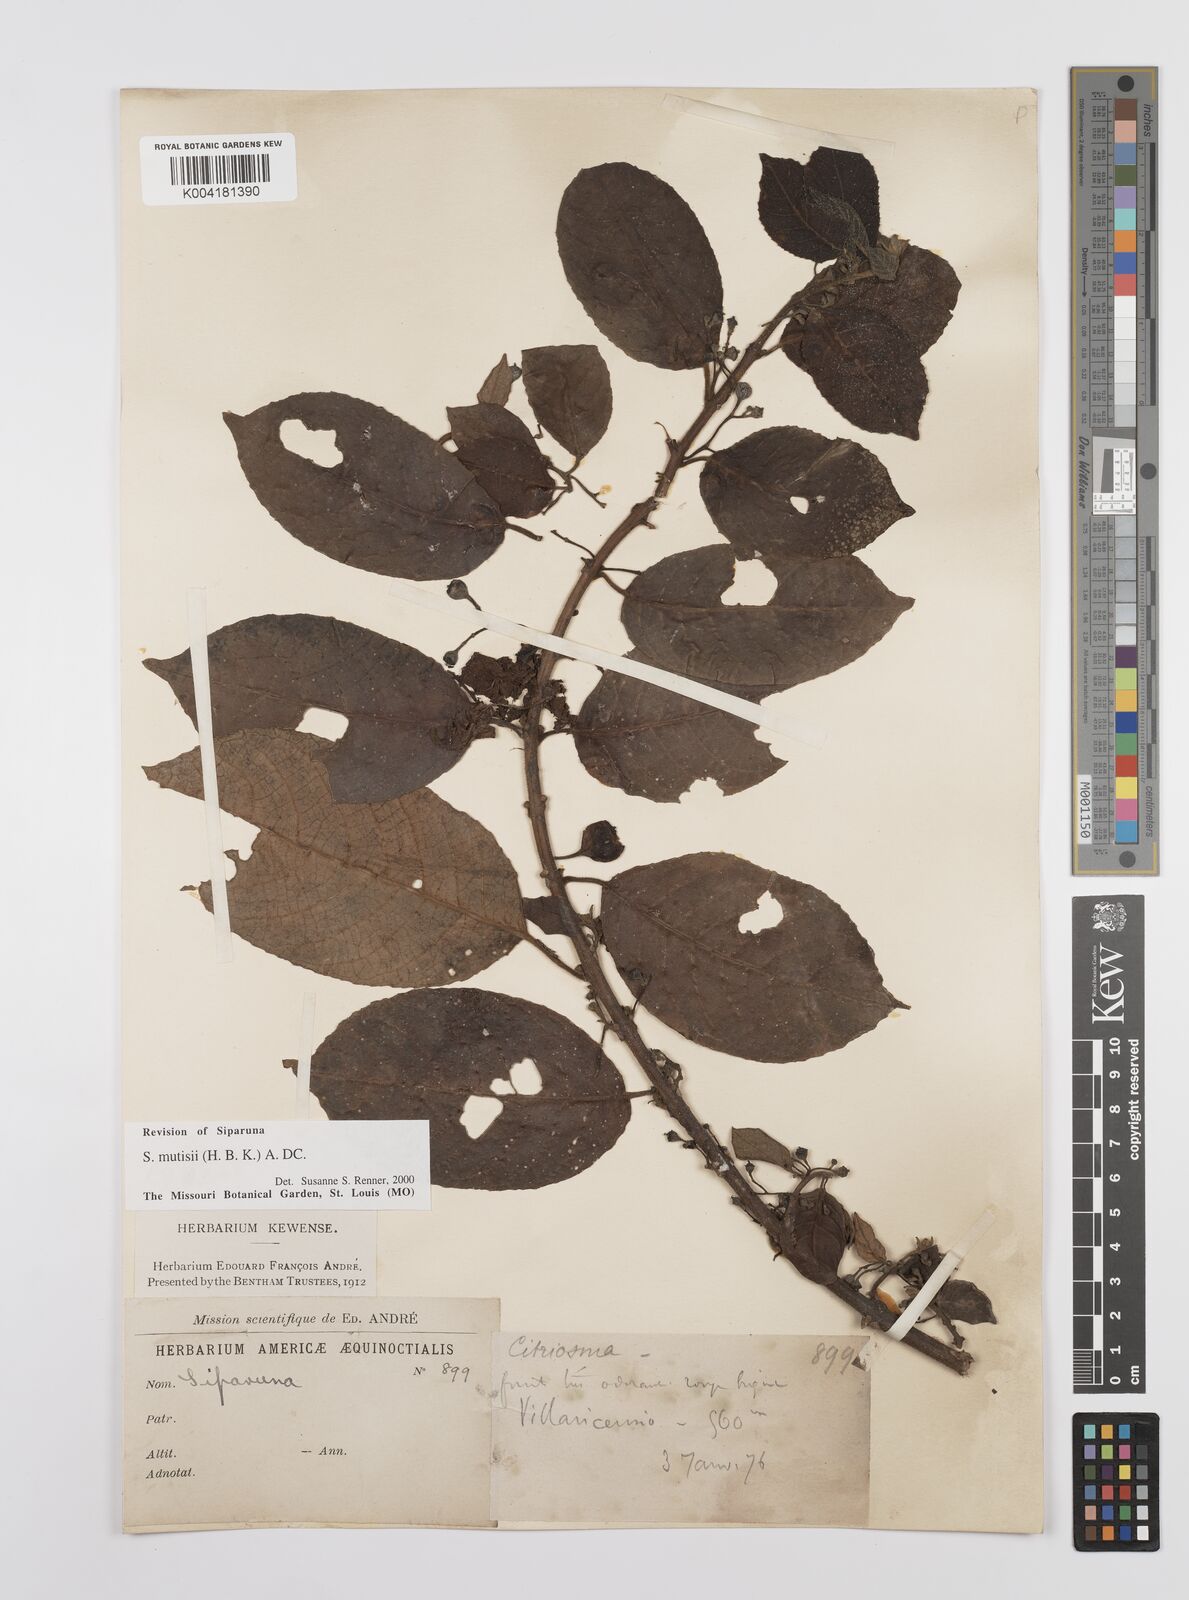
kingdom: Plantae
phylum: Tracheophyta
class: Magnoliopsida
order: Laurales
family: Siparunaceae
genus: Siparuna
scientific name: Siparuna mutisii
